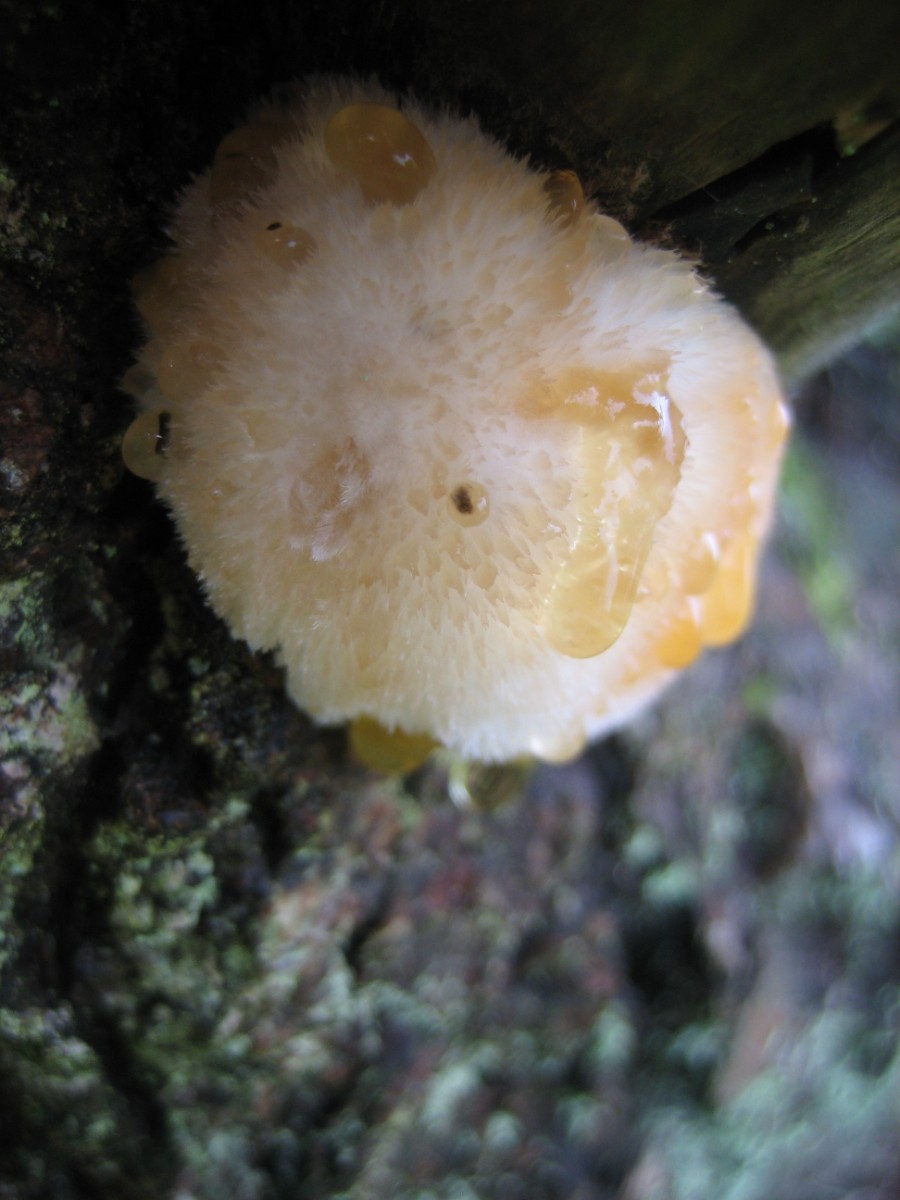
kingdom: Fungi
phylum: Basidiomycota
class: Agaricomycetes
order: Polyporales
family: Dacryobolaceae
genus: Postia
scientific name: Postia ptychogaster
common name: støvende kødporesvamp
